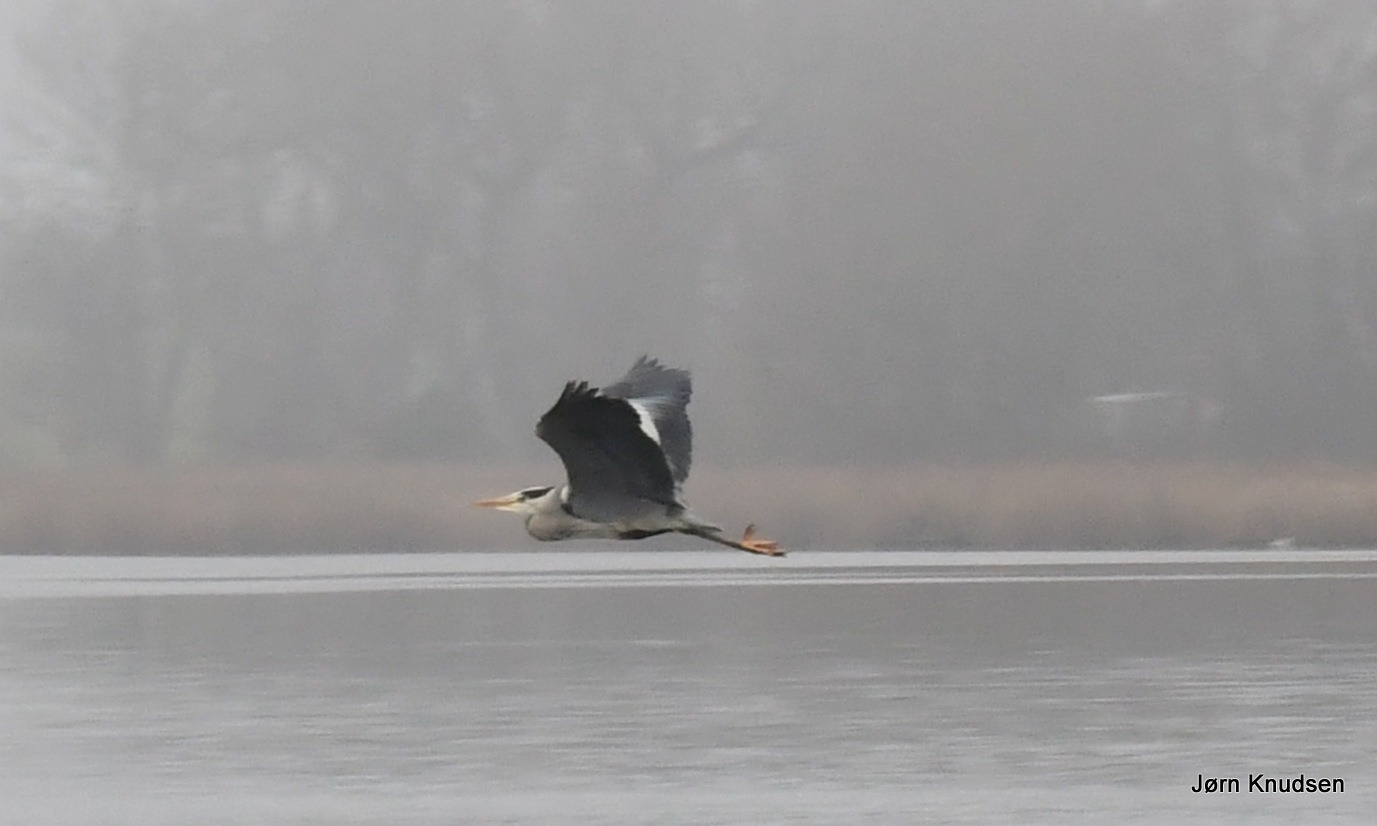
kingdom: Animalia
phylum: Chordata
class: Aves
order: Pelecaniformes
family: Ardeidae
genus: Ardea
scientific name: Ardea cinerea
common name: Fiskehejre
